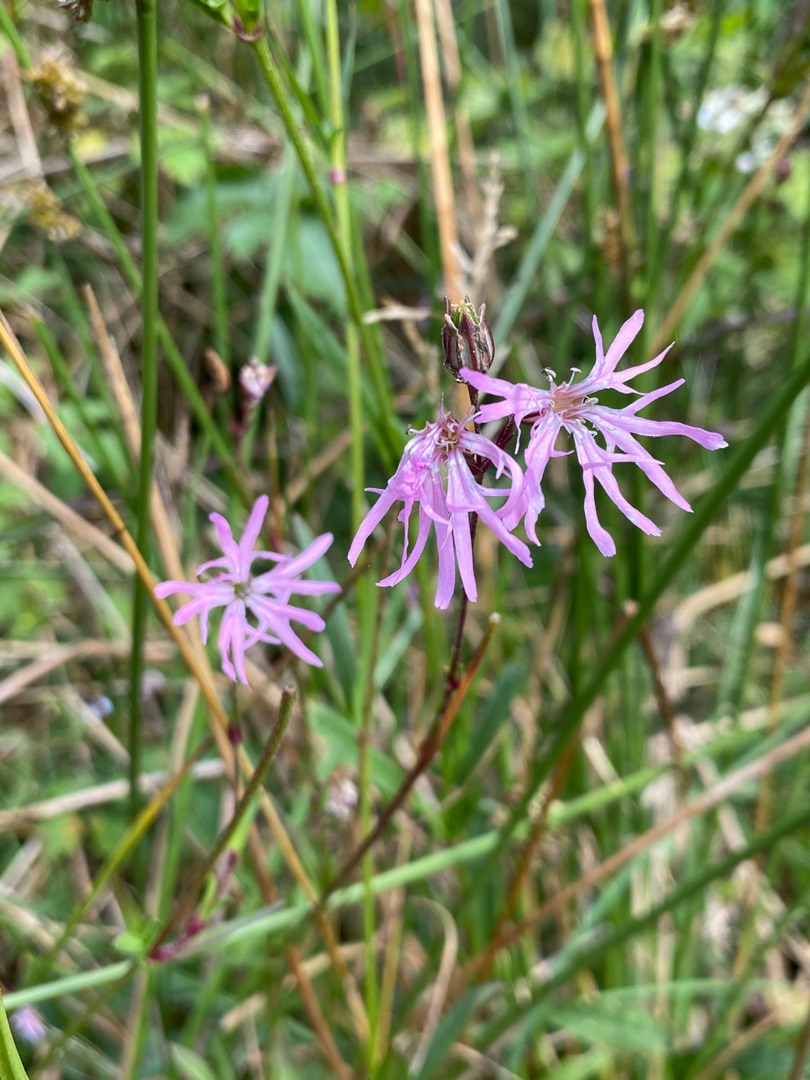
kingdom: Plantae
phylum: Tracheophyta
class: Magnoliopsida
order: Caryophyllales
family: Caryophyllaceae
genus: Silene
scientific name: Silene flos-cuculi
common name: Trævlekrone
